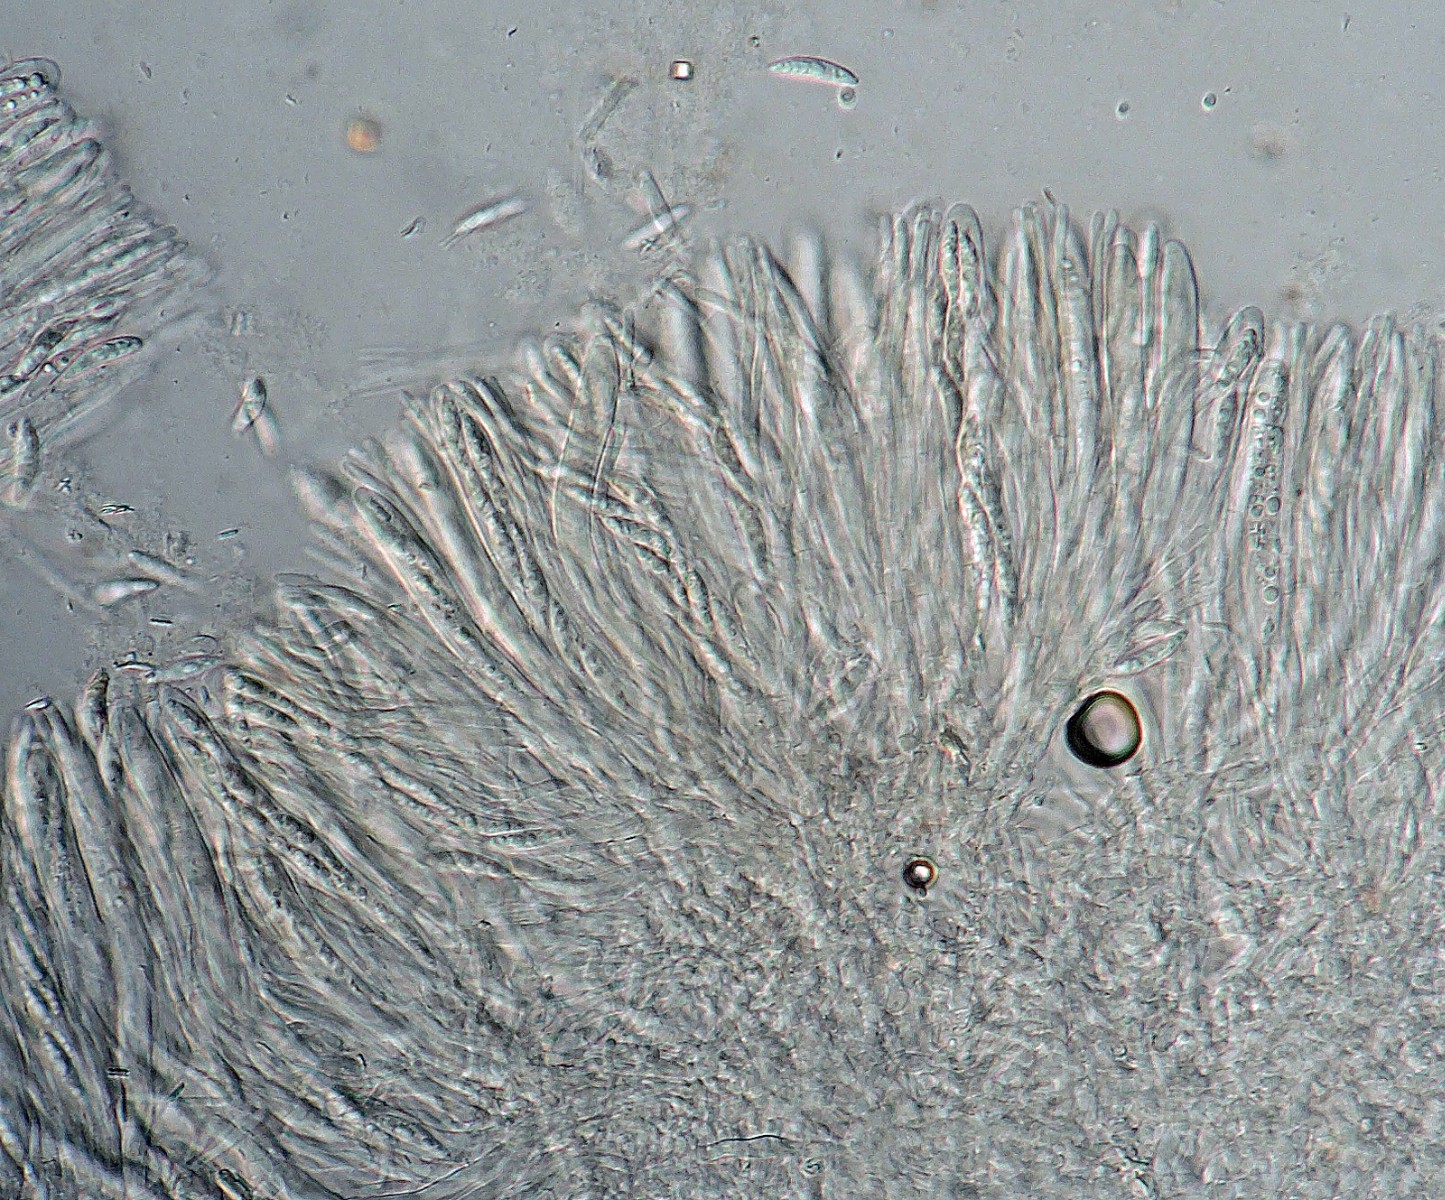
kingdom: Fungi
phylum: Ascomycota
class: Leotiomycetes
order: Helotiales
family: Helotiaceae
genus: Hymenoscyphus
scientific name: Hymenoscyphus
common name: stilkskive
